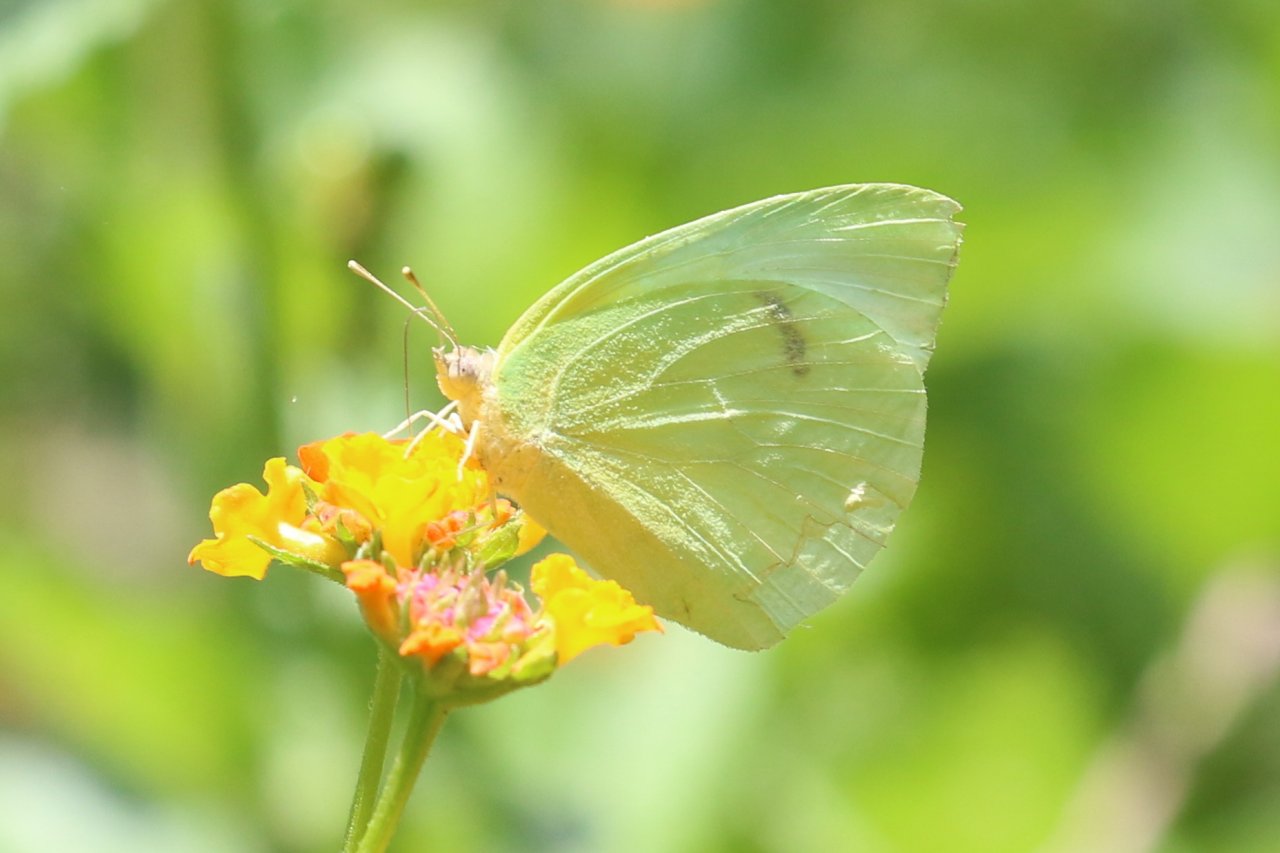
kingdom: Animalia
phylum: Arthropoda
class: Insecta
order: Lepidoptera
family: Pieridae
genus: Kricogonia
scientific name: Kricogonia lyside
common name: Lyside Sulphur
